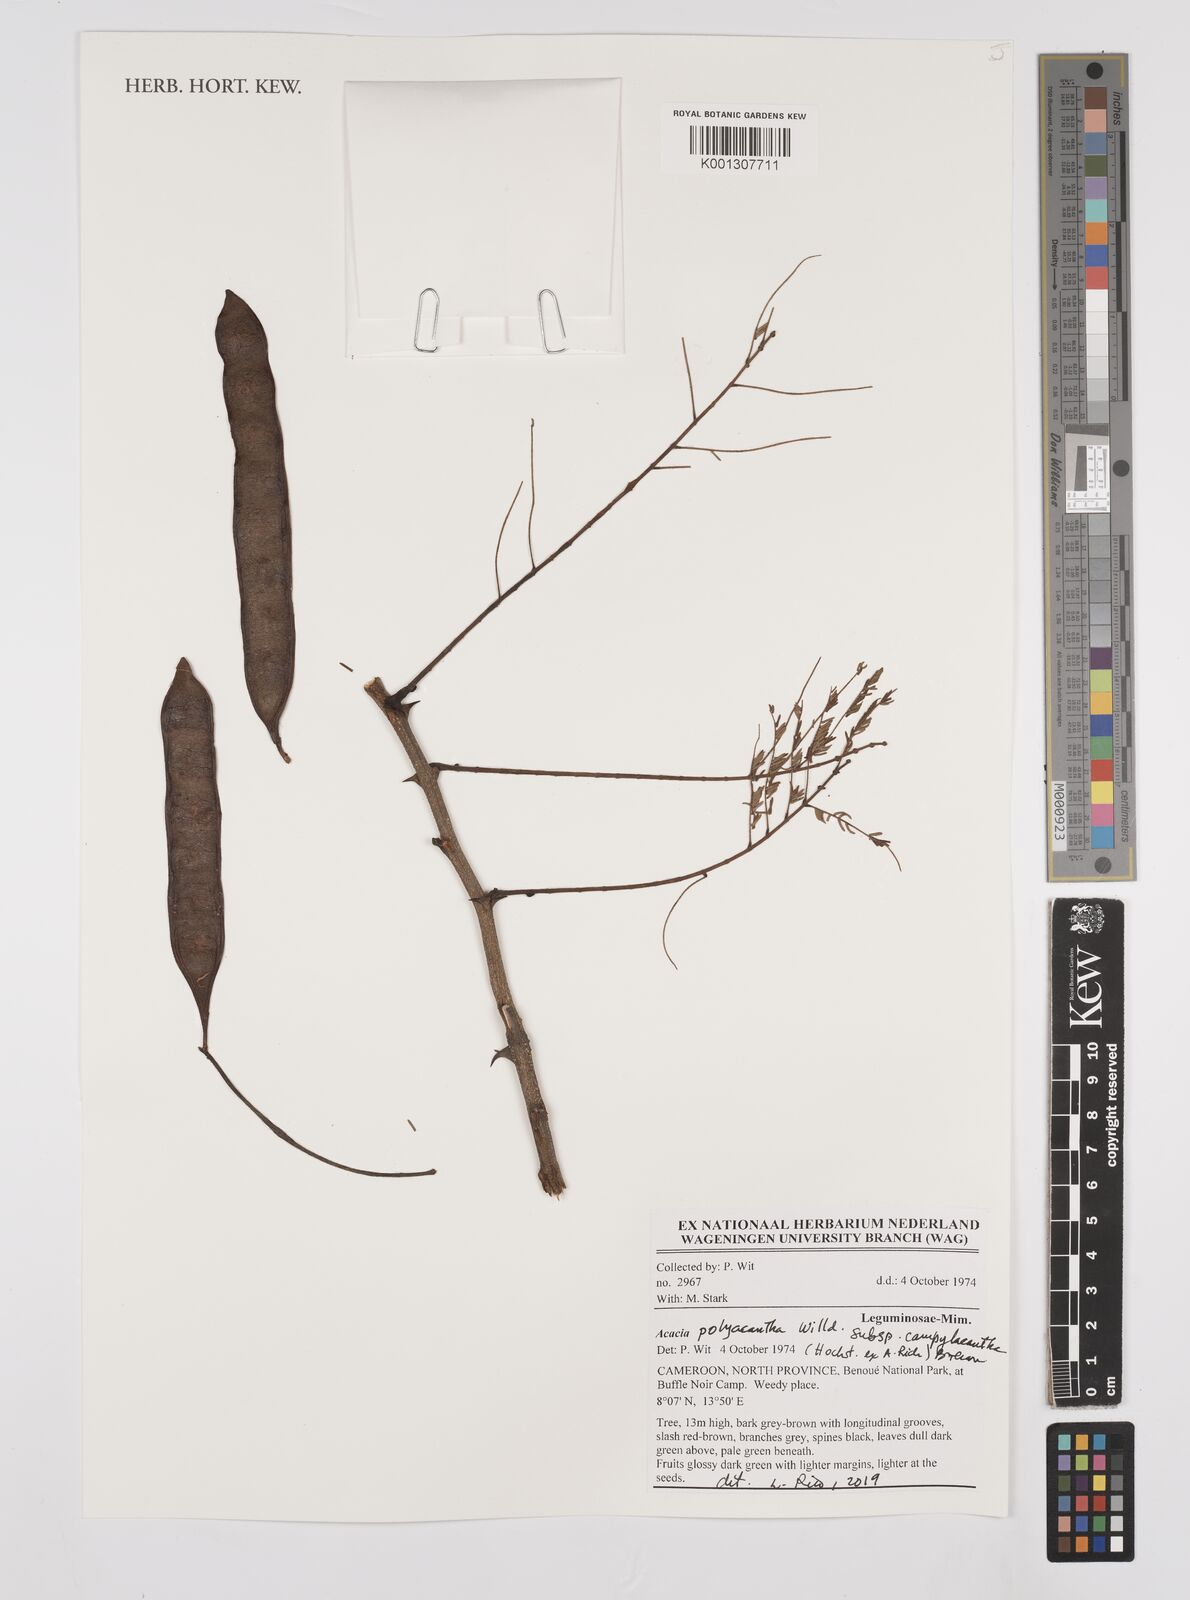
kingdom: Plantae
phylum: Tracheophyta
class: Magnoliopsida
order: Fabales
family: Fabaceae
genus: Acacia
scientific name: Acacia
